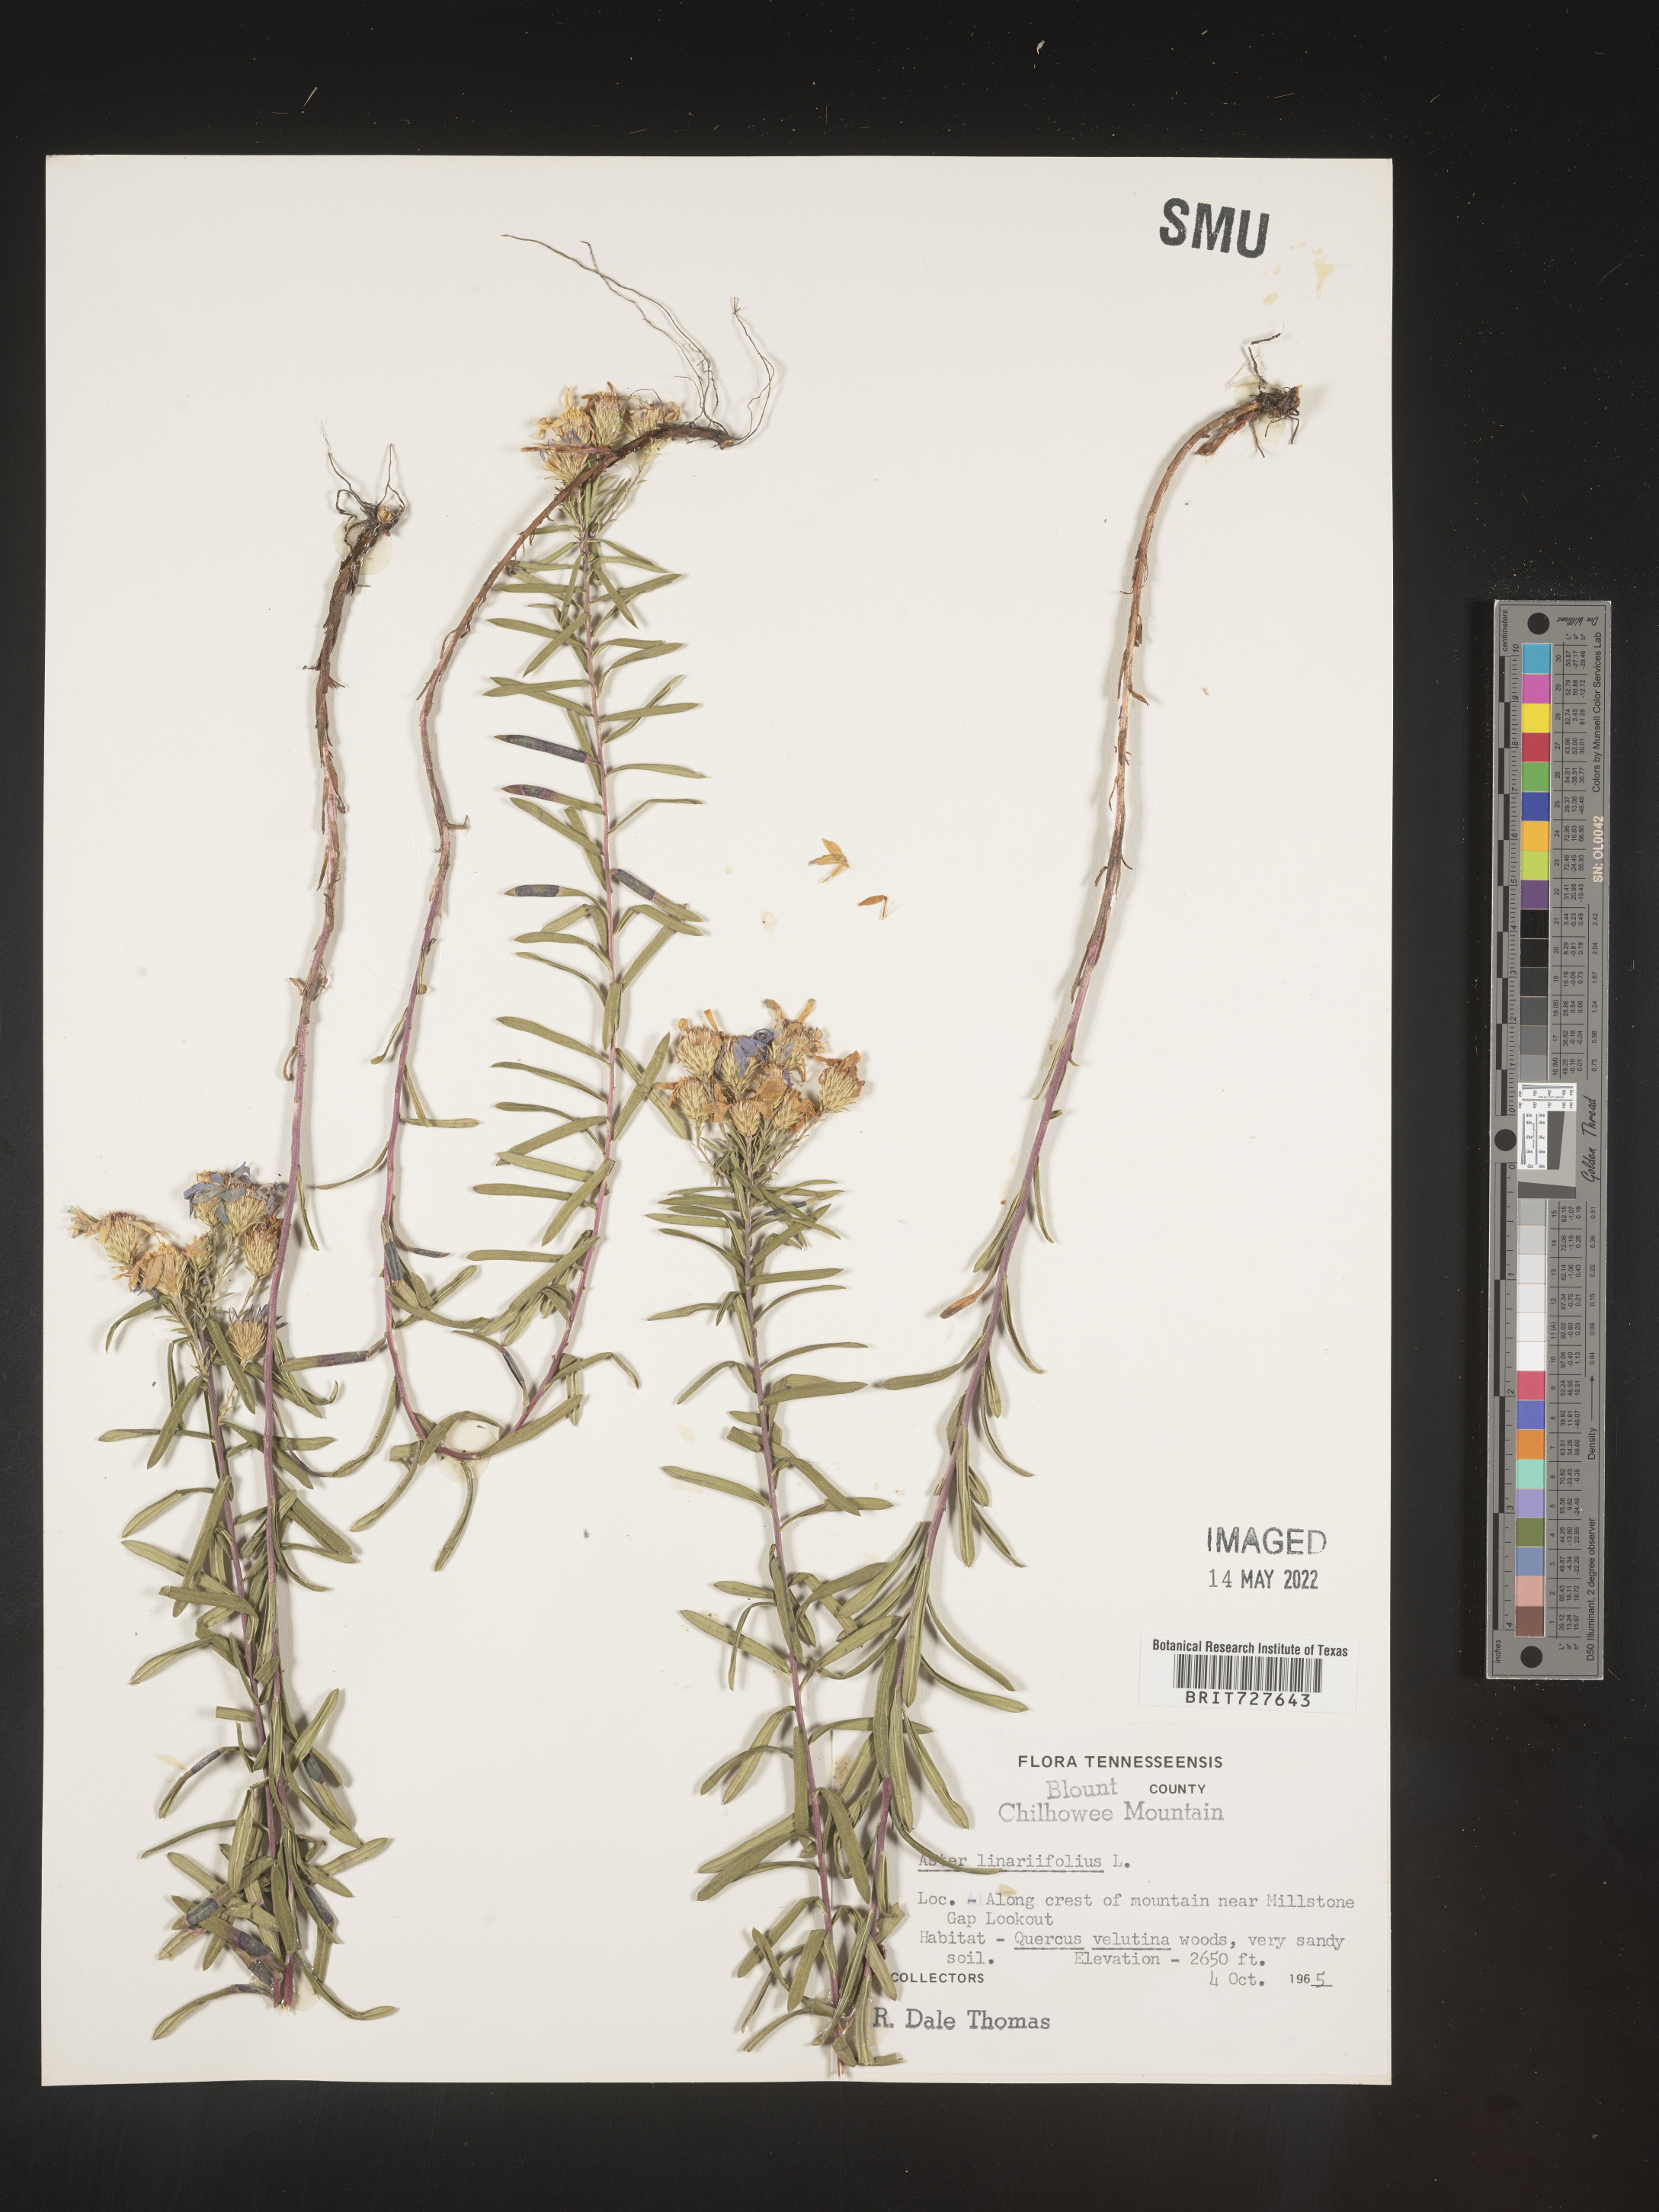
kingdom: Plantae
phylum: Tracheophyta
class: Magnoliopsida
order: Asterales
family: Asteraceae
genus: Ionactis
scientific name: Ionactis linariifolia
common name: Flax-leaf aster
